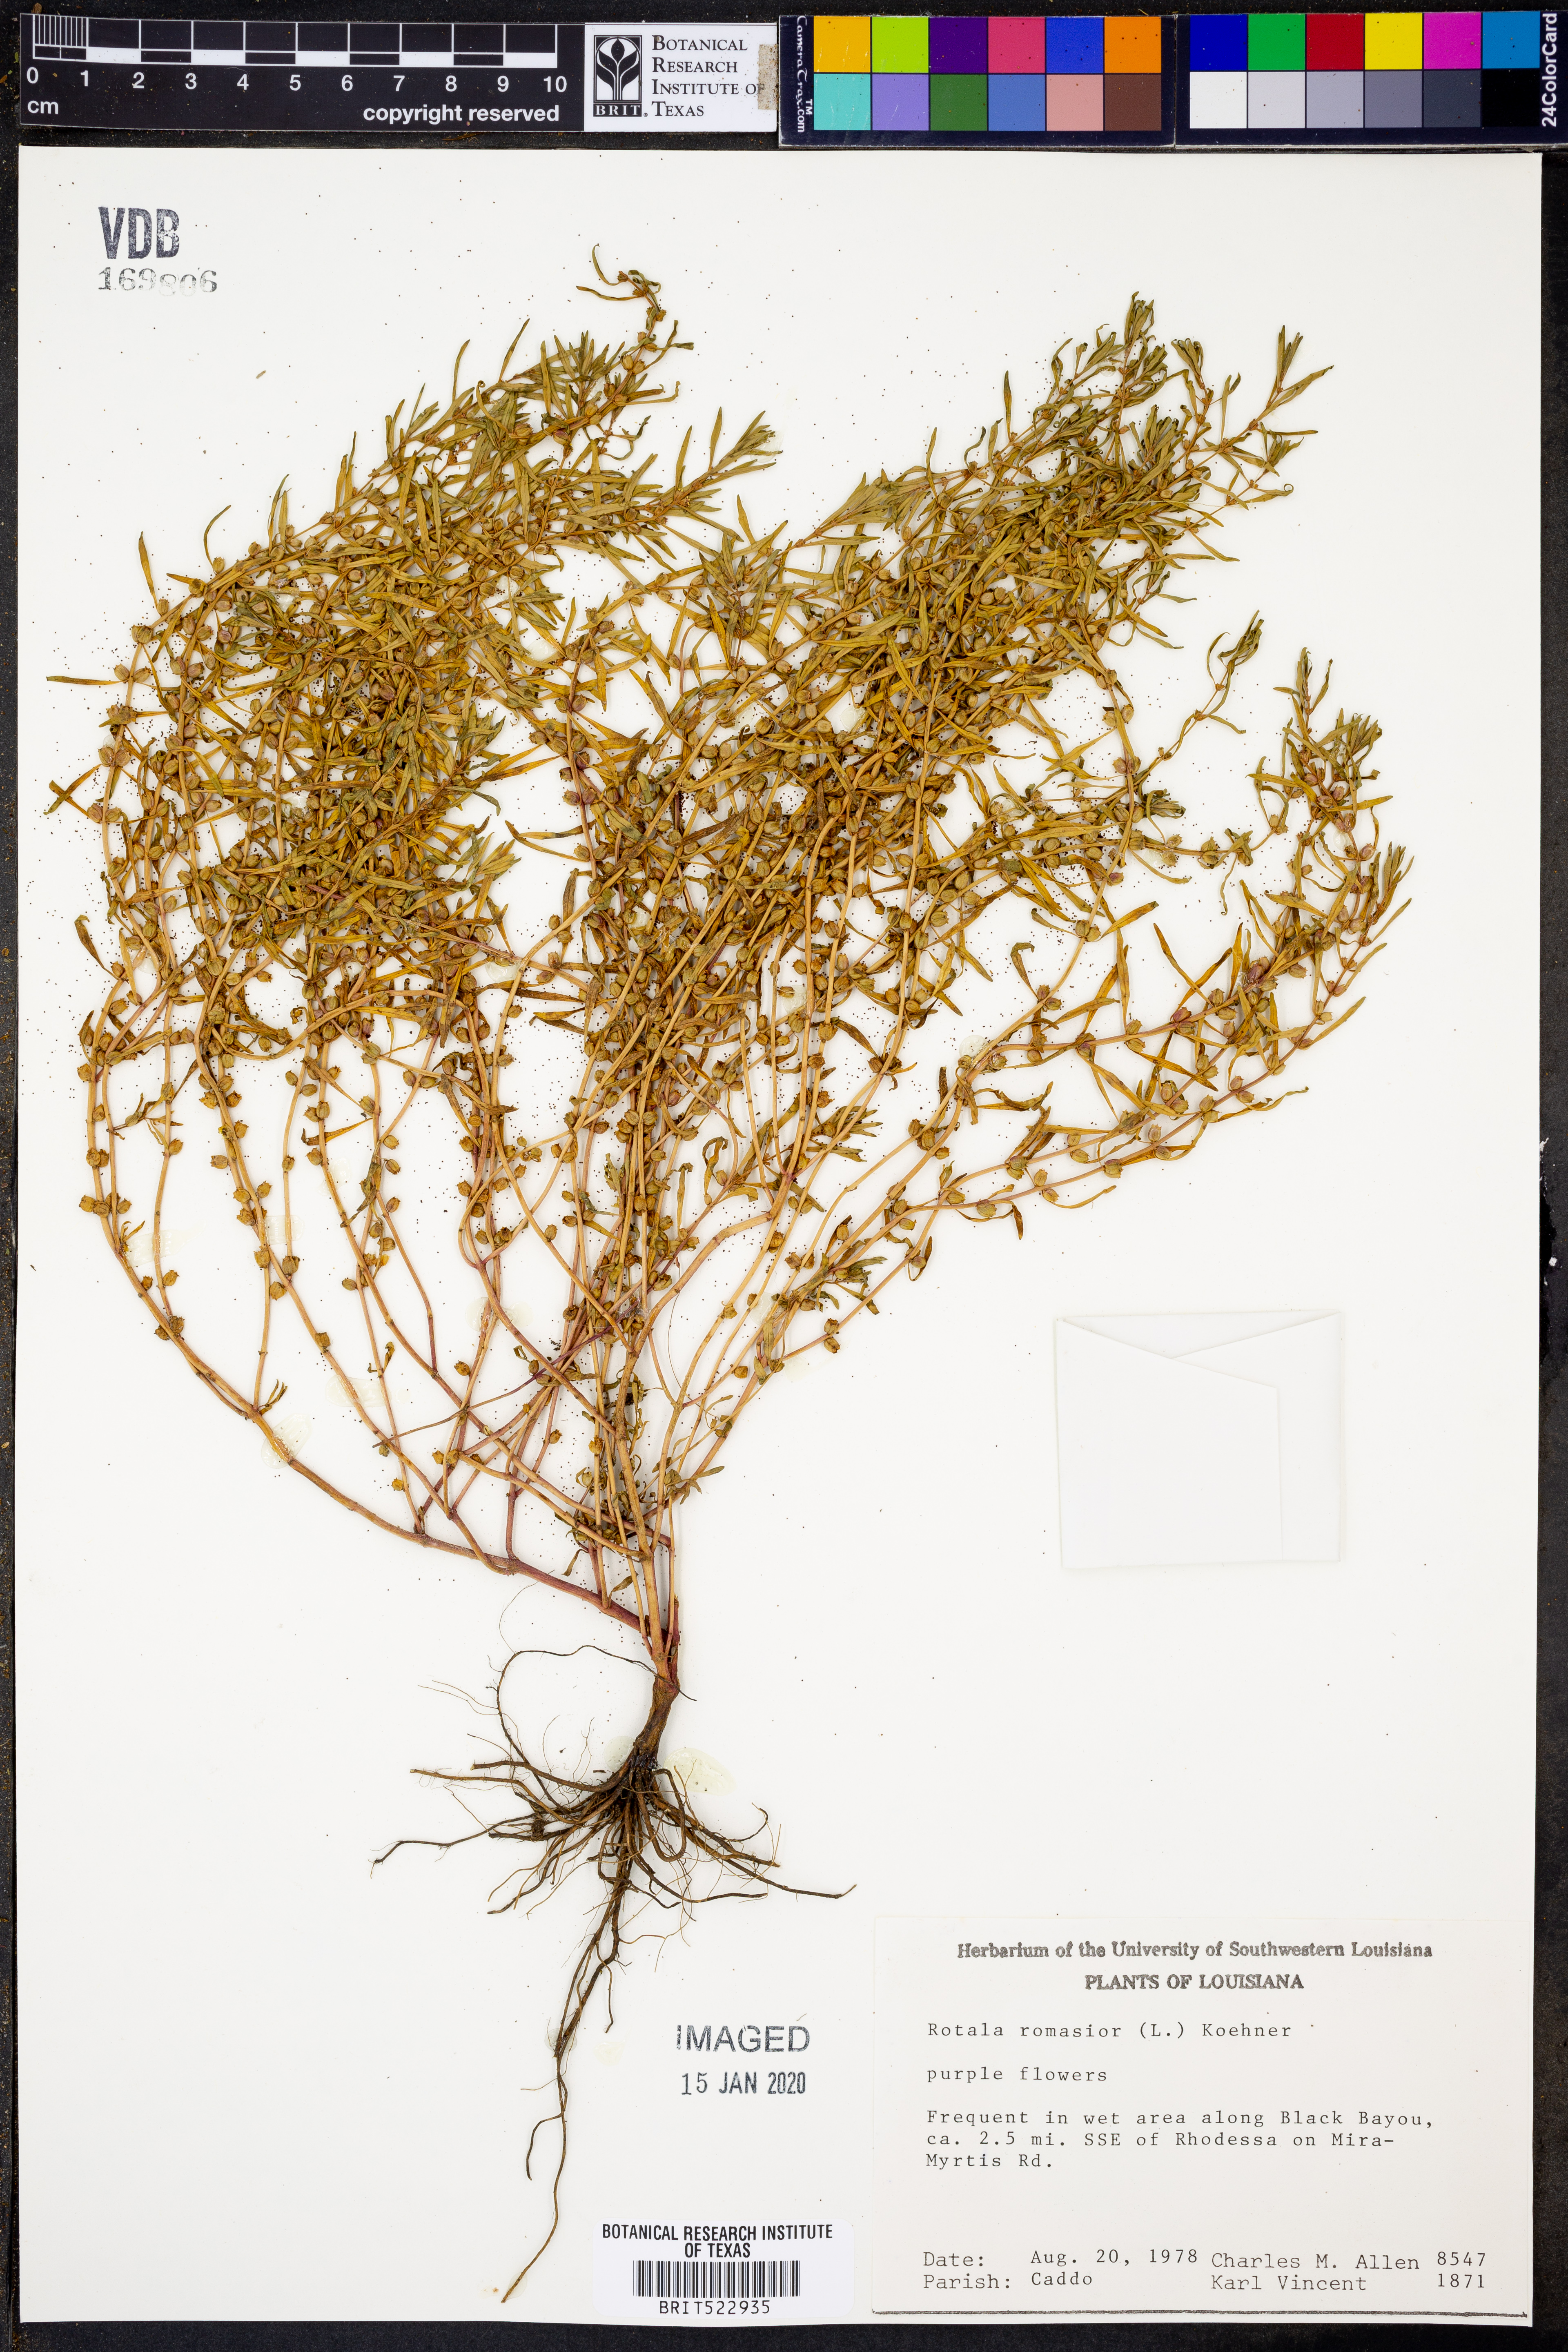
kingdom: Plantae
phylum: Tracheophyta
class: Magnoliopsida
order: Myrtales
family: Lythraceae
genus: Rotala
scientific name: Rotala ramosior
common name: Lowland rotala
